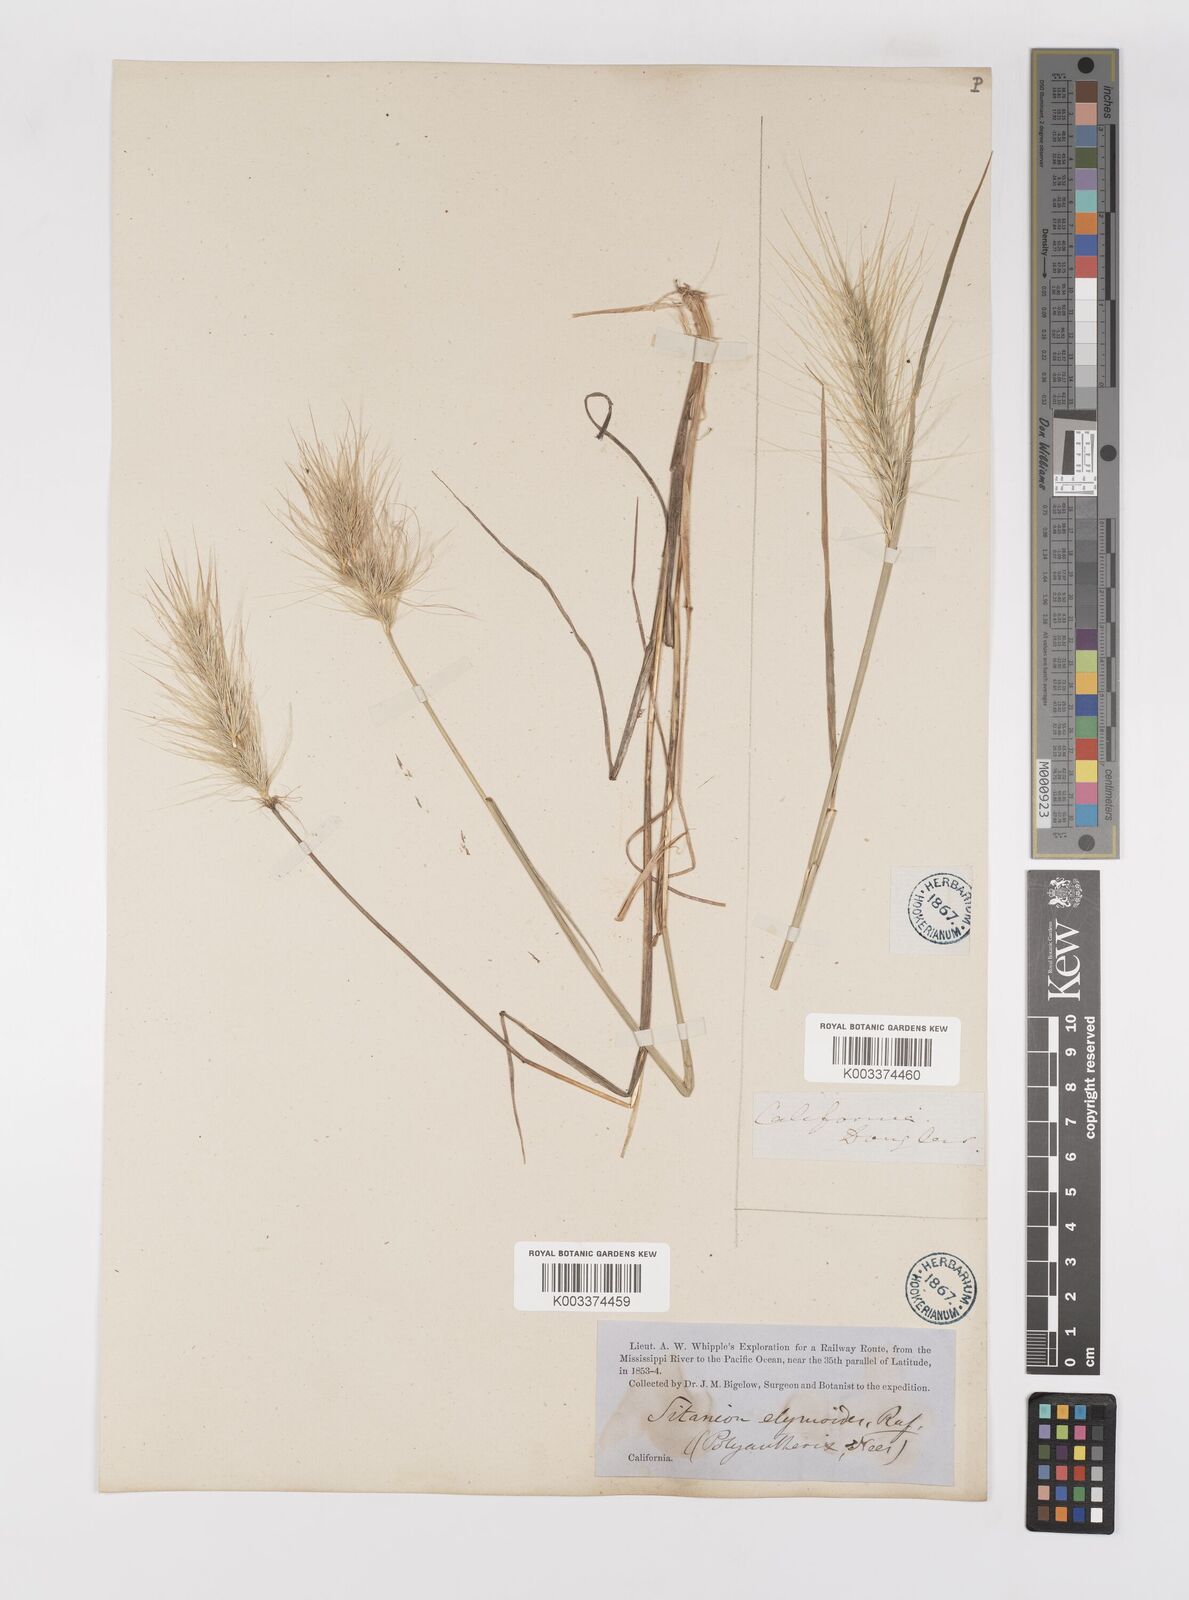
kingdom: Plantae
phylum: Tracheophyta
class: Liliopsida
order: Poales
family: Poaceae
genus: Elymus
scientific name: Elymus multisetus
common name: Big squirreltail
